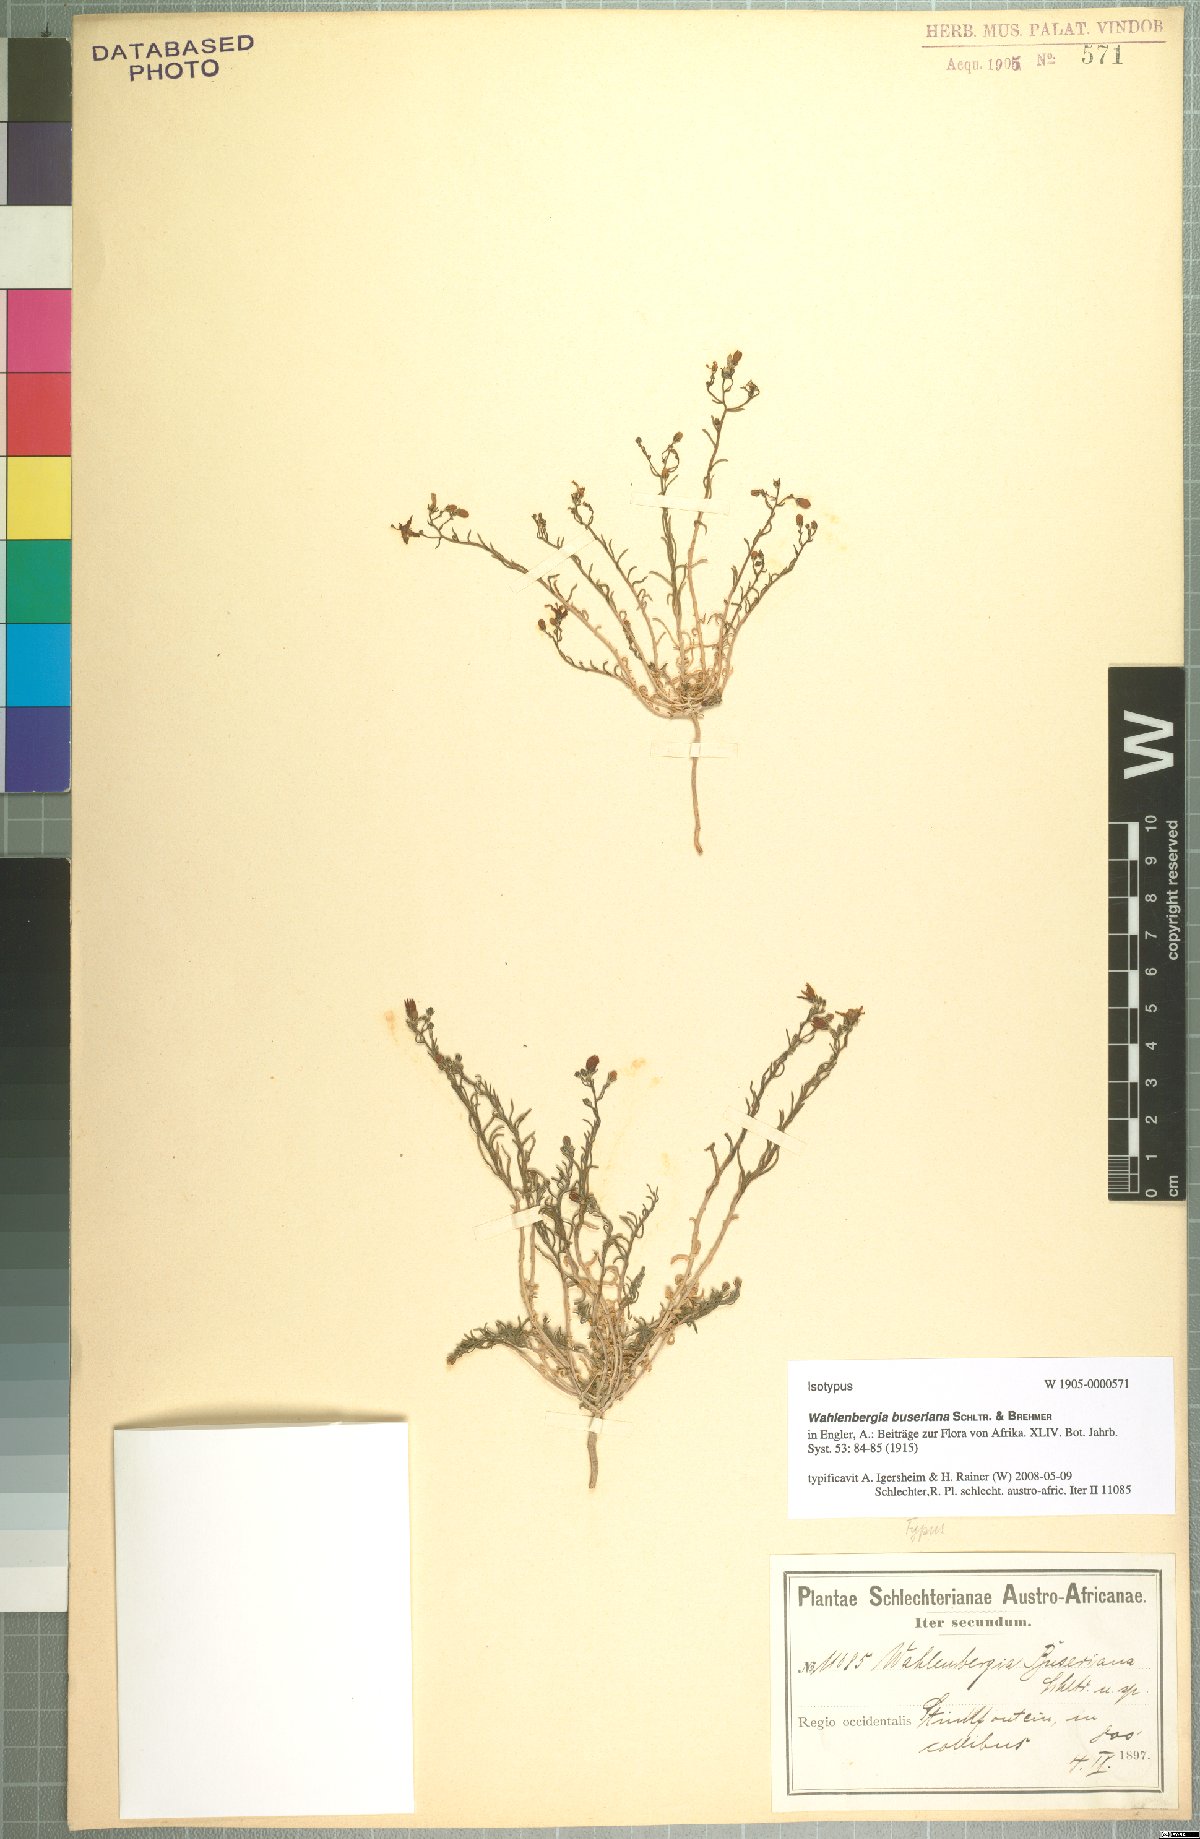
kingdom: Plantae
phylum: Tracheophyta
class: Magnoliopsida
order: Asterales
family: Campanulaceae
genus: Wahlenbergia
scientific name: Wahlenbergia buseriana
